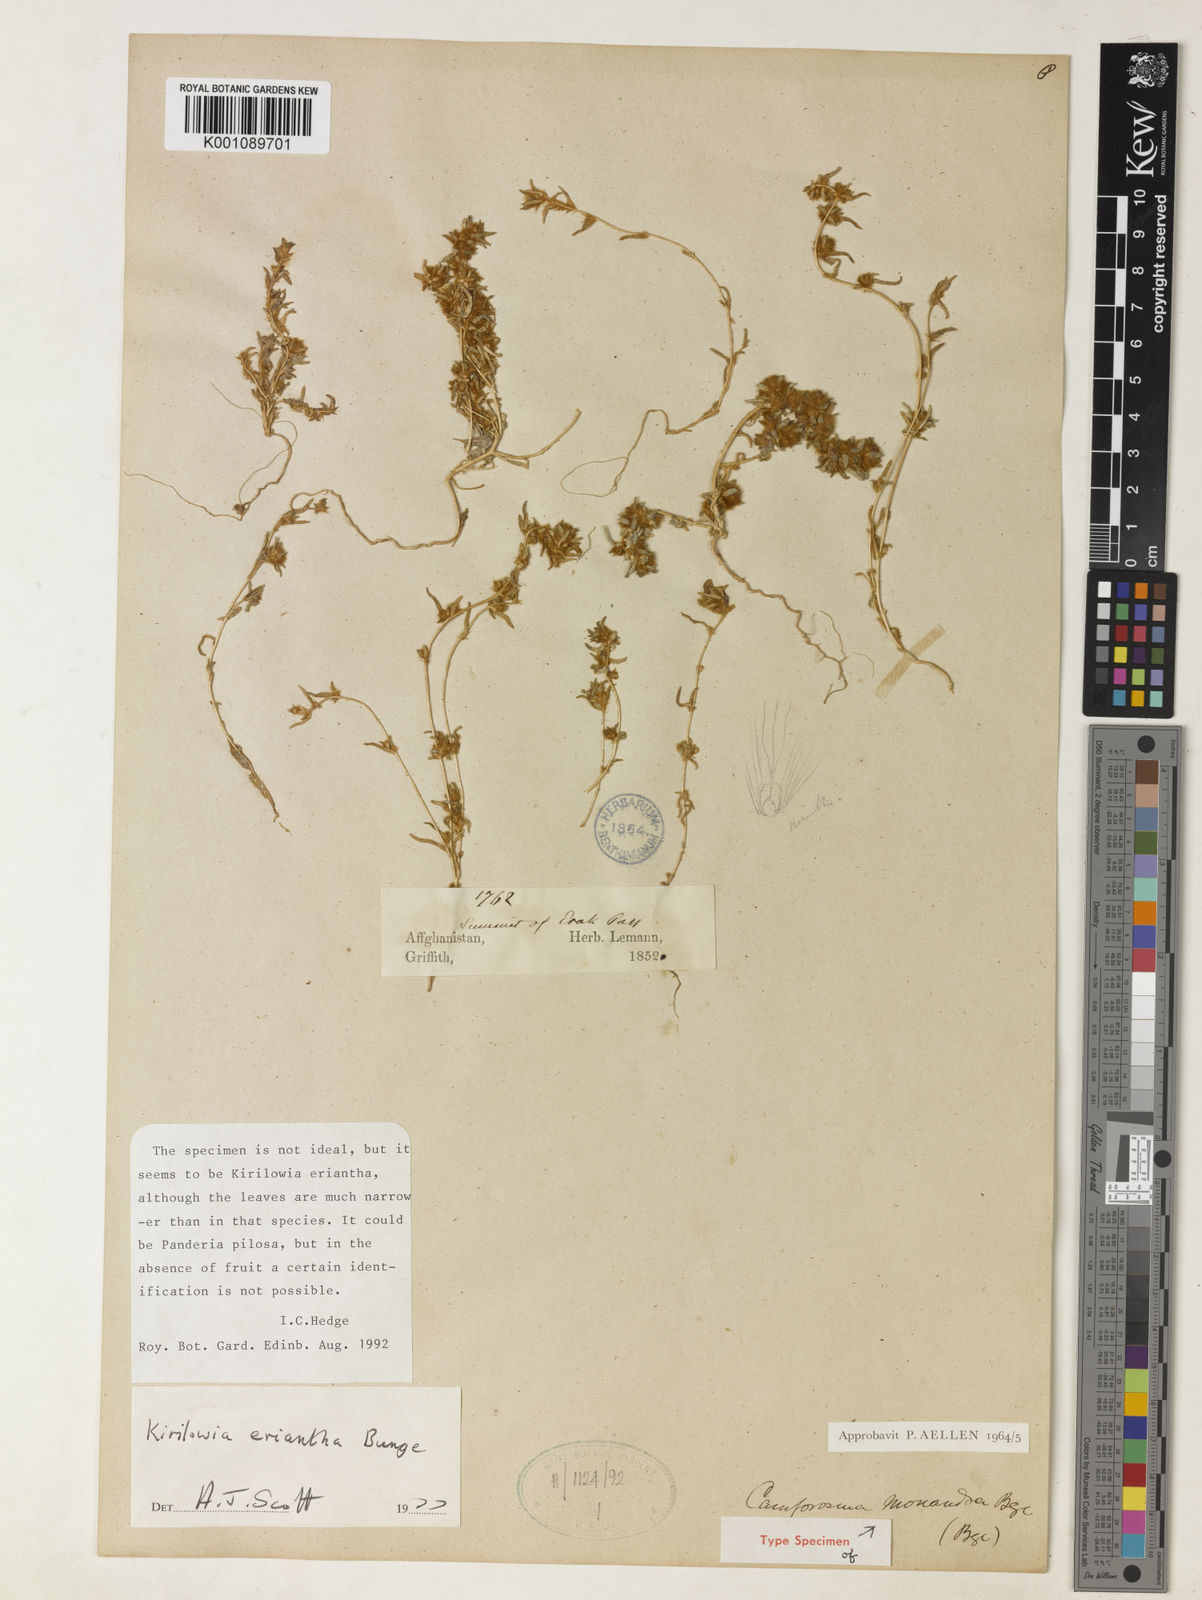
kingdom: Plantae
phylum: Tracheophyta
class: Magnoliopsida
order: Caryophyllales
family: Amaranthaceae
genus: Bassia
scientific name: Bassia lasiantha
